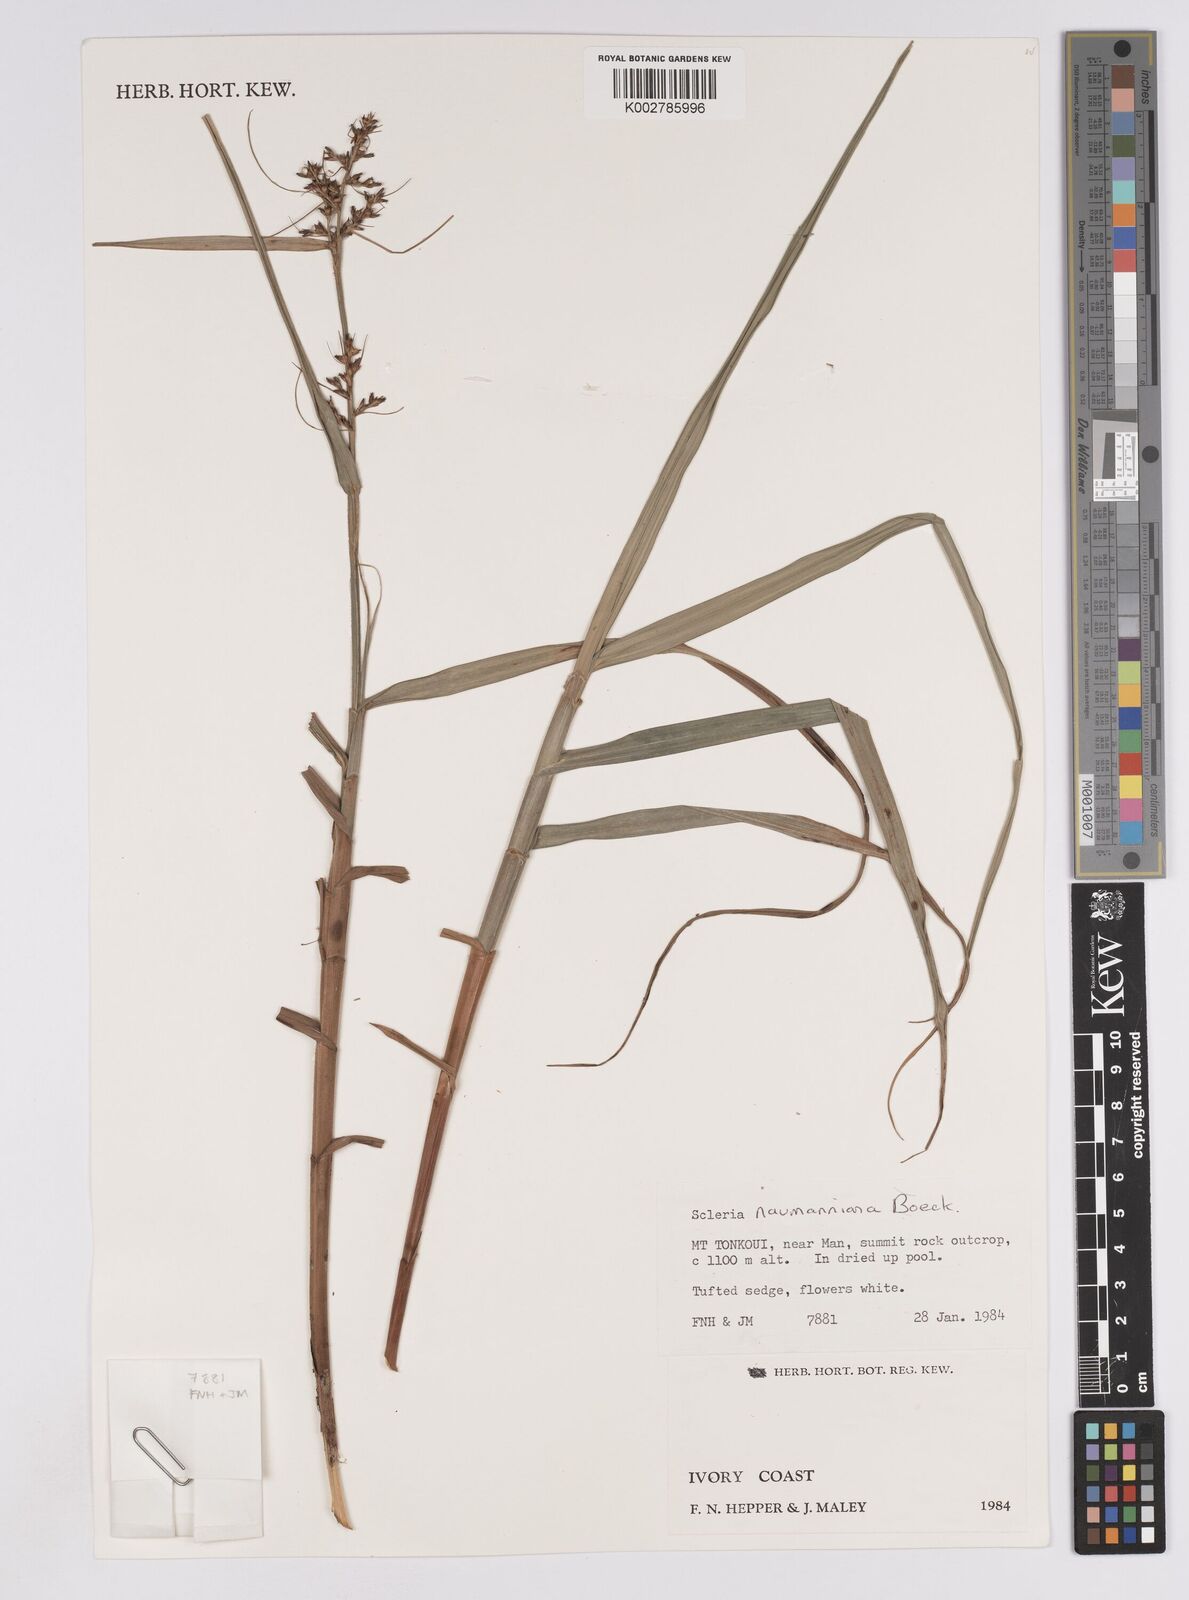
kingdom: Plantae
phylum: Tracheophyta
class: Liliopsida
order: Poales
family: Cyperaceae
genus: Scleria
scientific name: Scleria naumanniana
